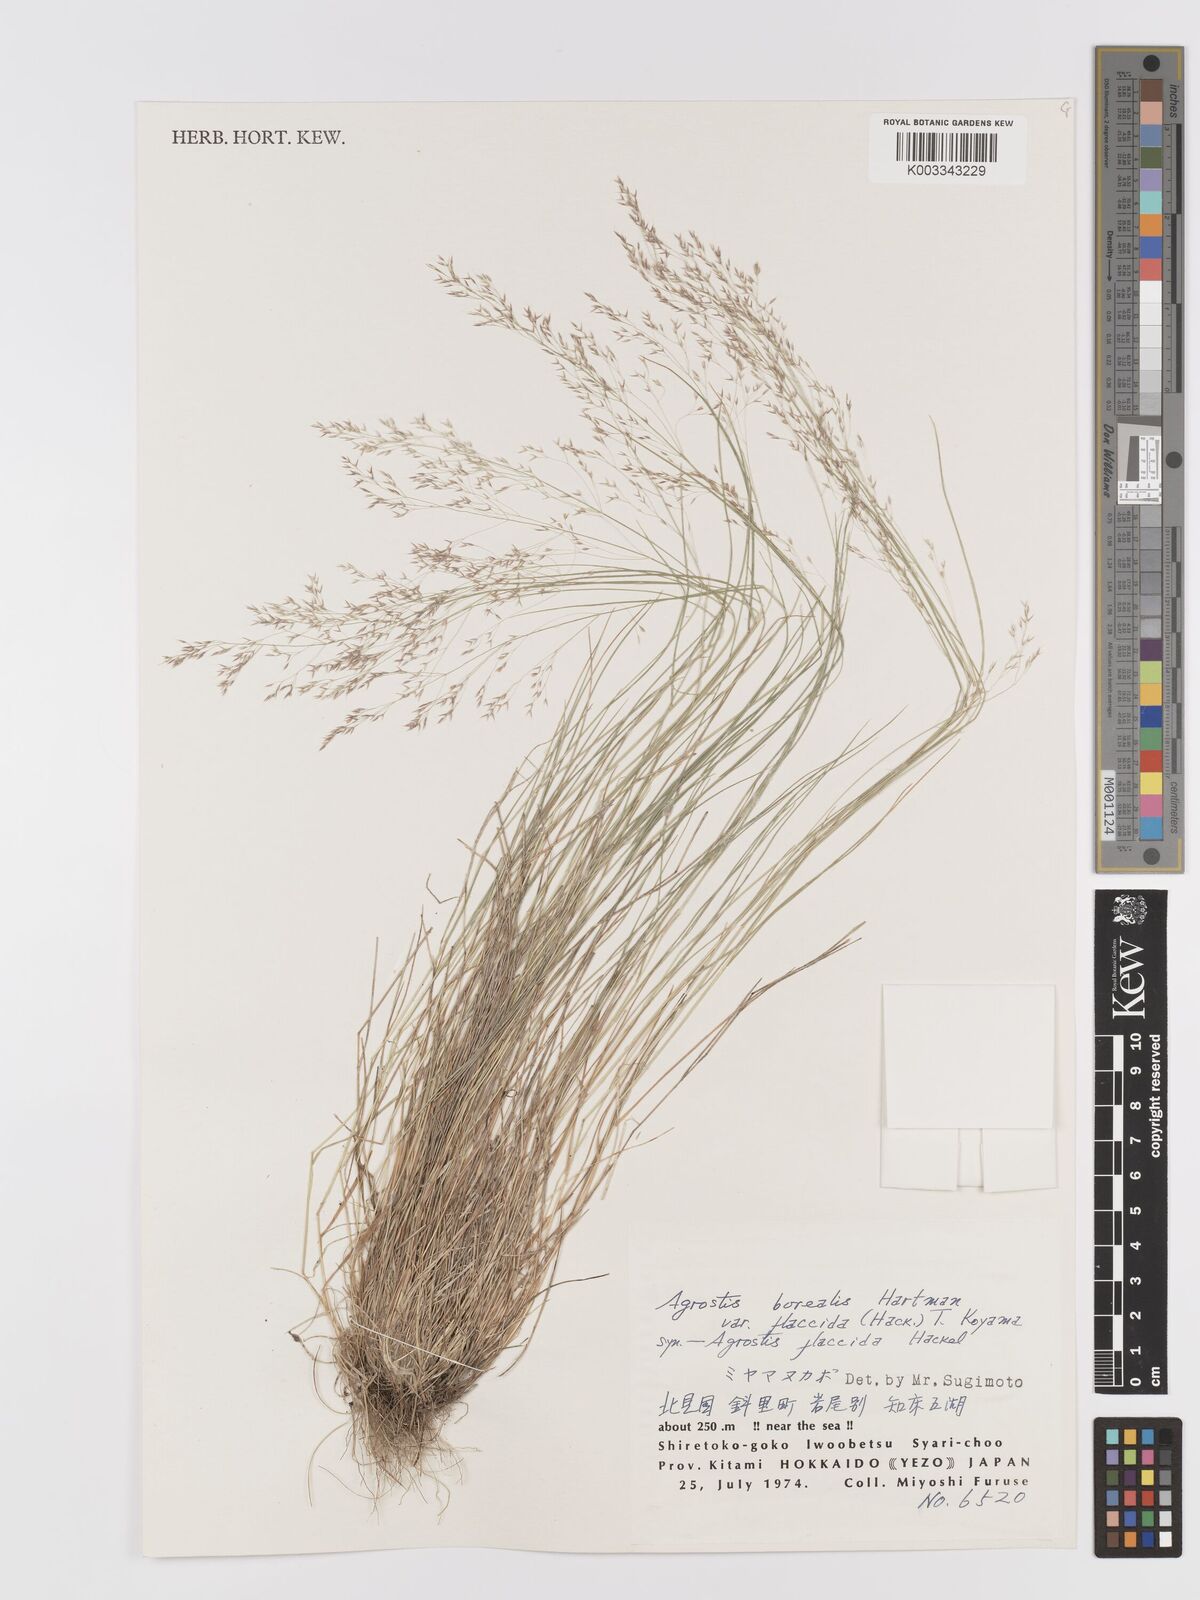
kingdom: Plantae
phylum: Tracheophyta
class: Liliopsida
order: Poales
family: Poaceae
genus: Agrostis
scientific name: Agrostis flaccida
